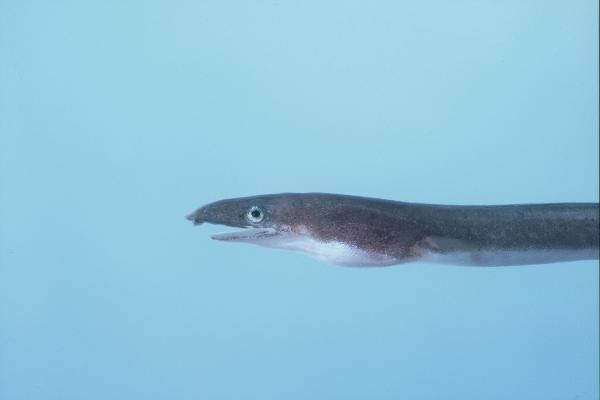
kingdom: Animalia
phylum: Chordata
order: Anguilliformes
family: Ophichthidae
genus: Phyllophichthus
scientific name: Phyllophichthus xenodontus
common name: Flappy snake eel
